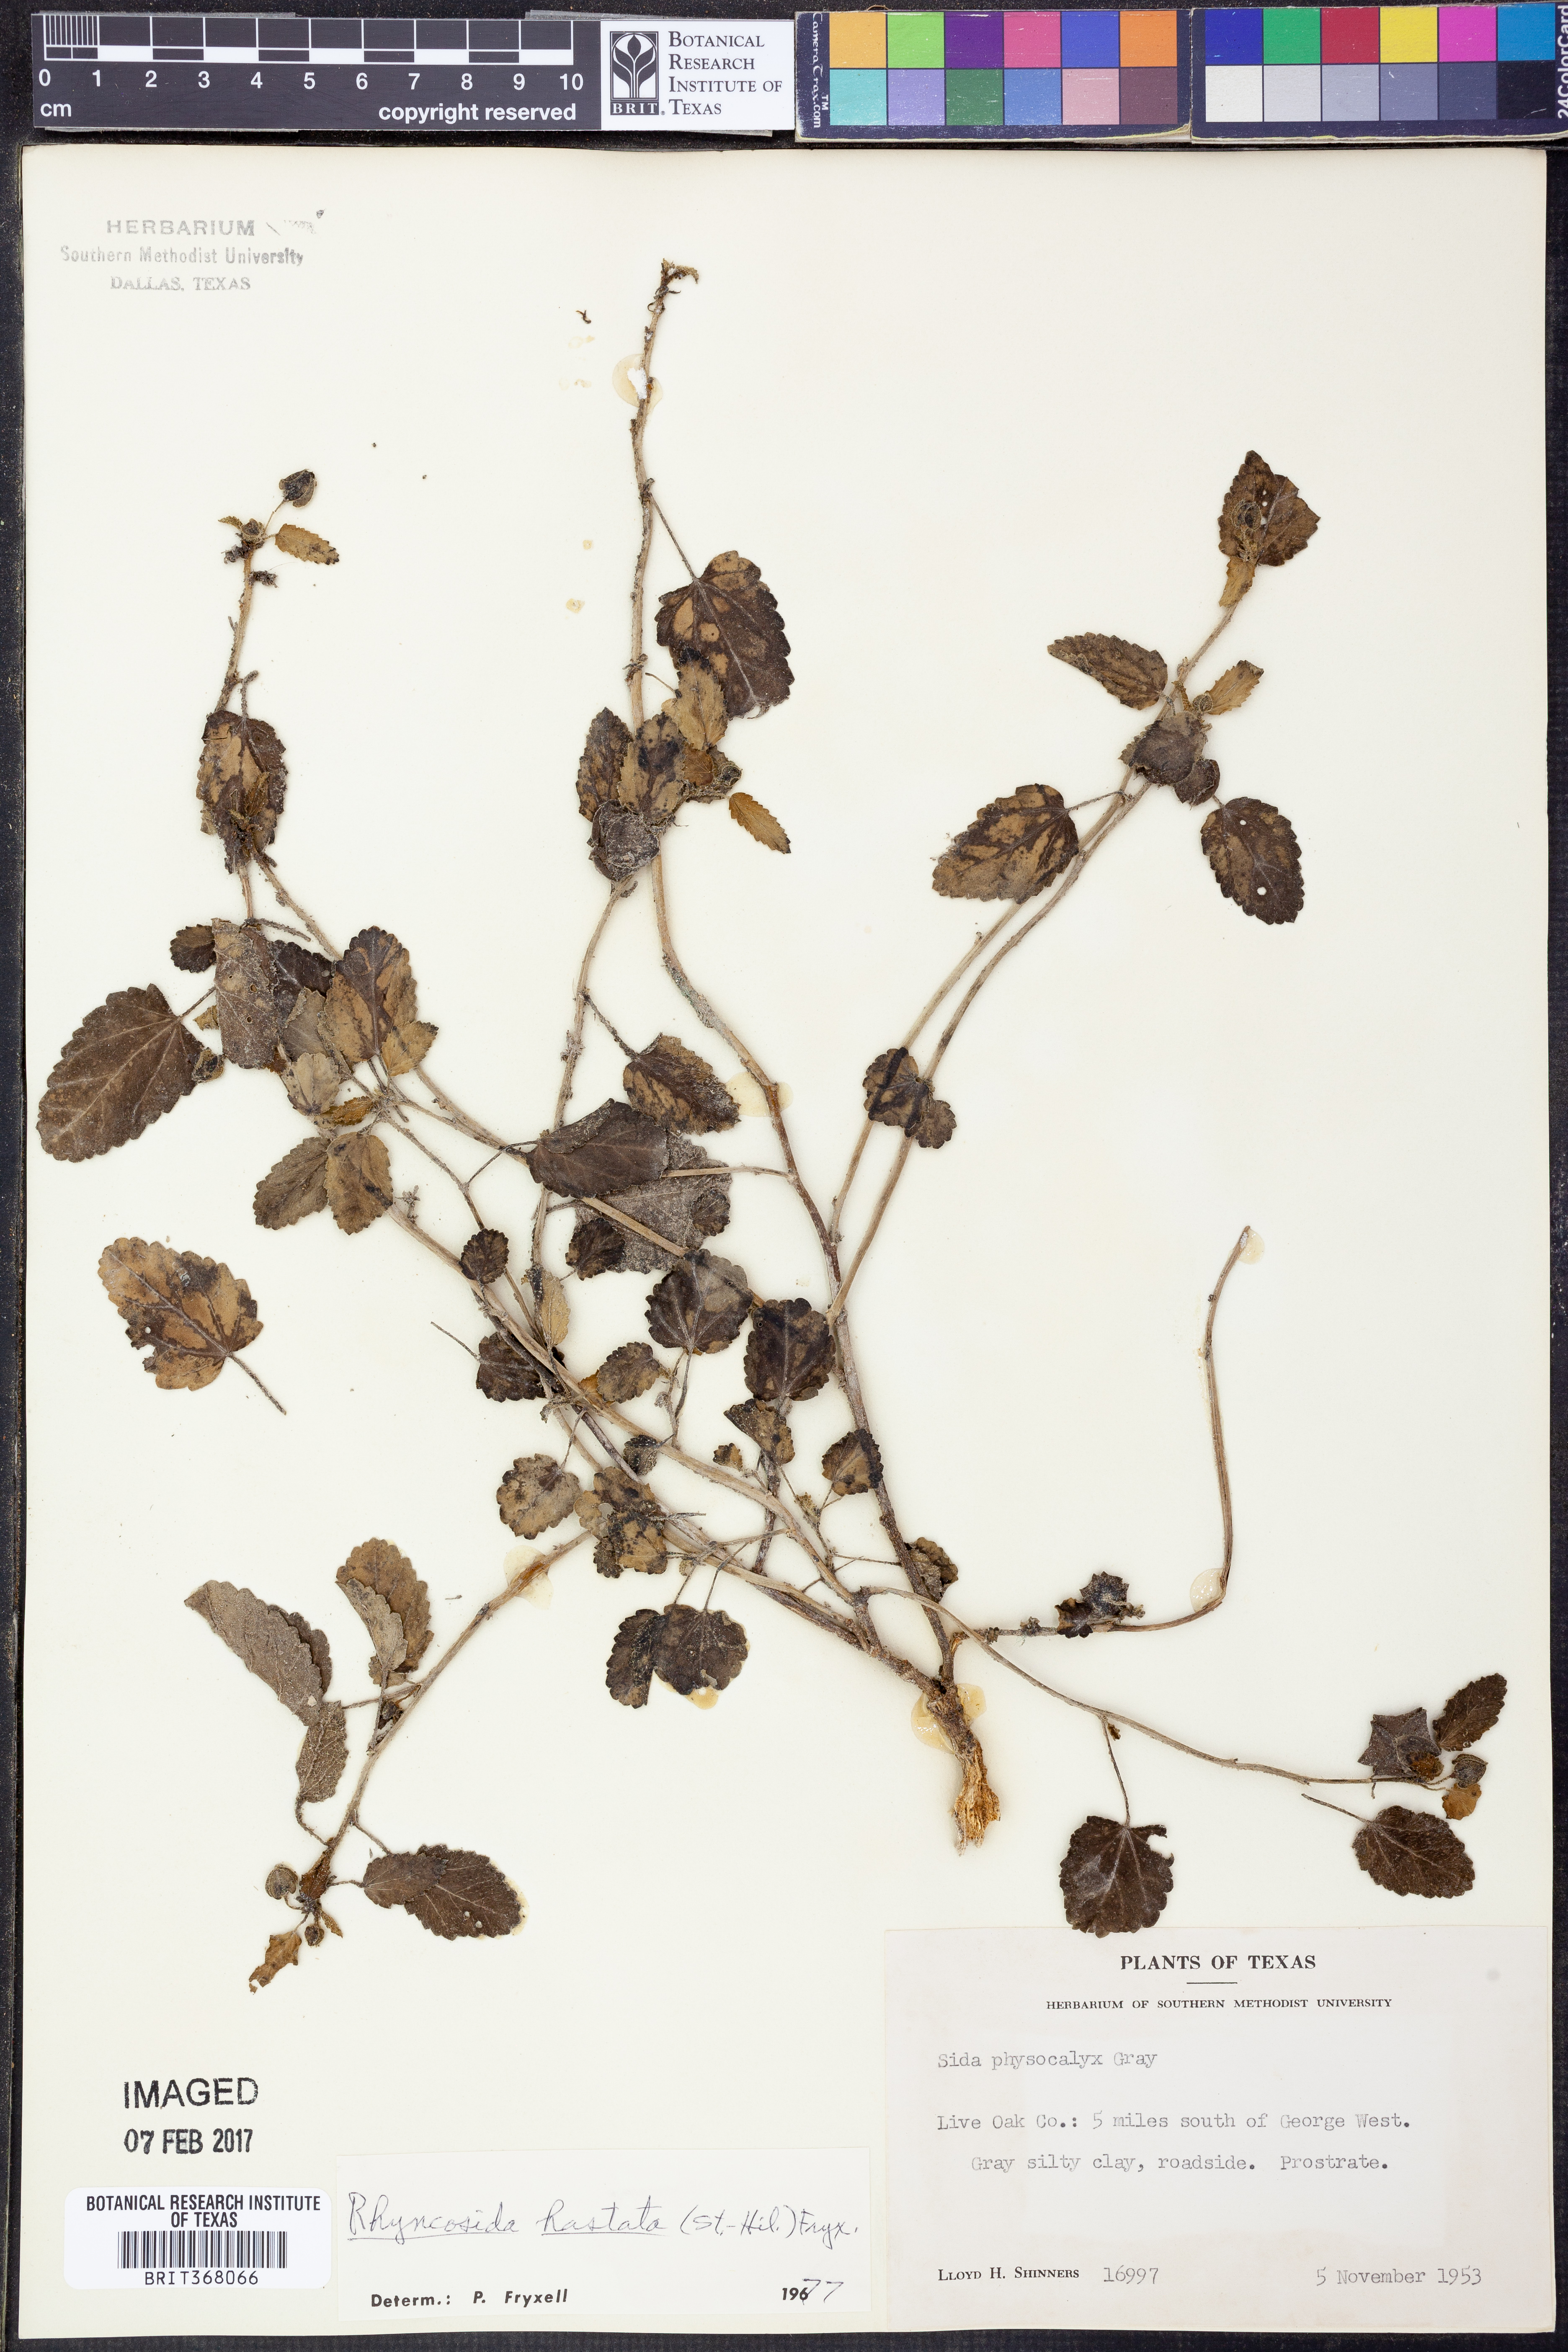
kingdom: Plantae
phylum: Tracheophyta
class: Magnoliopsida
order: Malvales
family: Malvaceae
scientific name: Malvaceae
